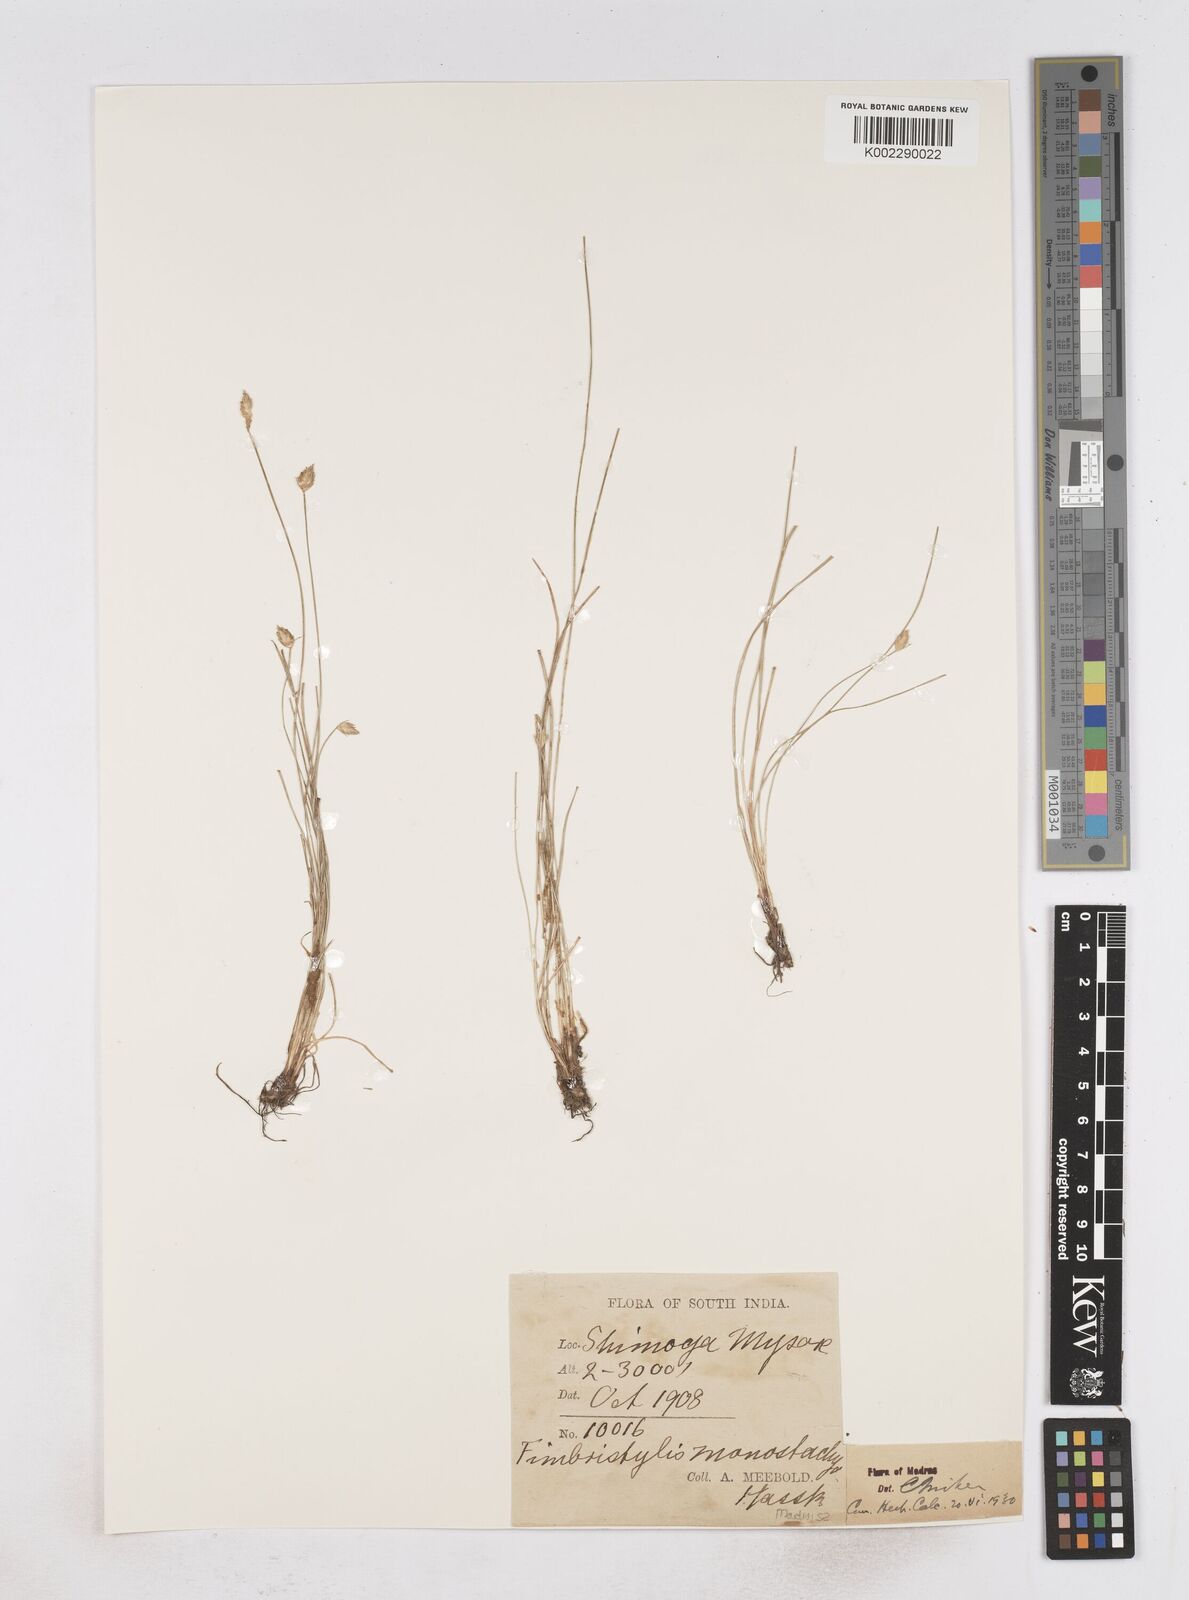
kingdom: Plantae
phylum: Tracheophyta
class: Liliopsida
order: Poales
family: Cyperaceae
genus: Abildgaardia
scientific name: Abildgaardia ovata
